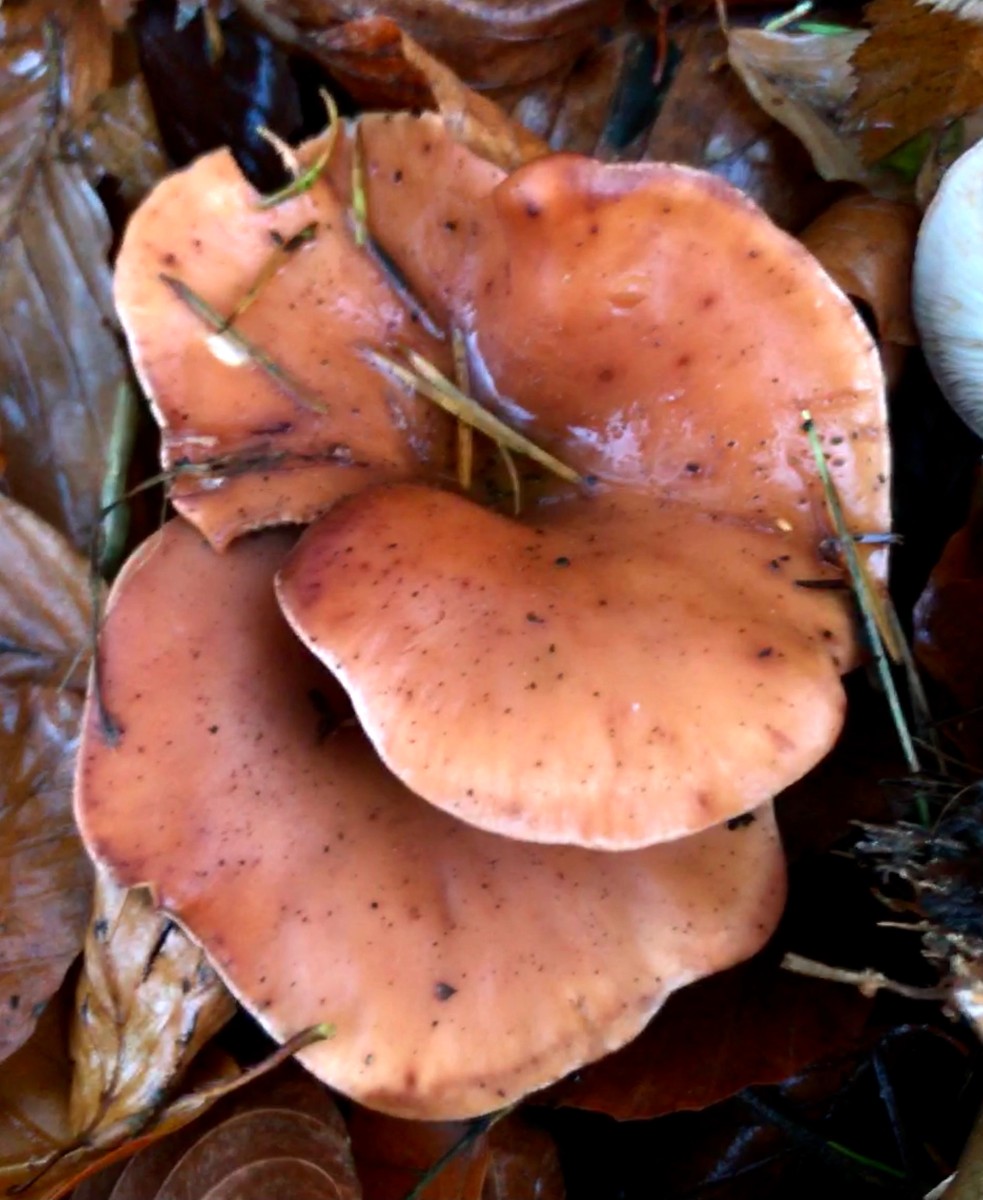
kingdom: Fungi
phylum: Basidiomycota
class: Agaricomycetes
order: Agaricales
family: Tricholomataceae
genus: Paralepista
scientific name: Paralepista flaccida
